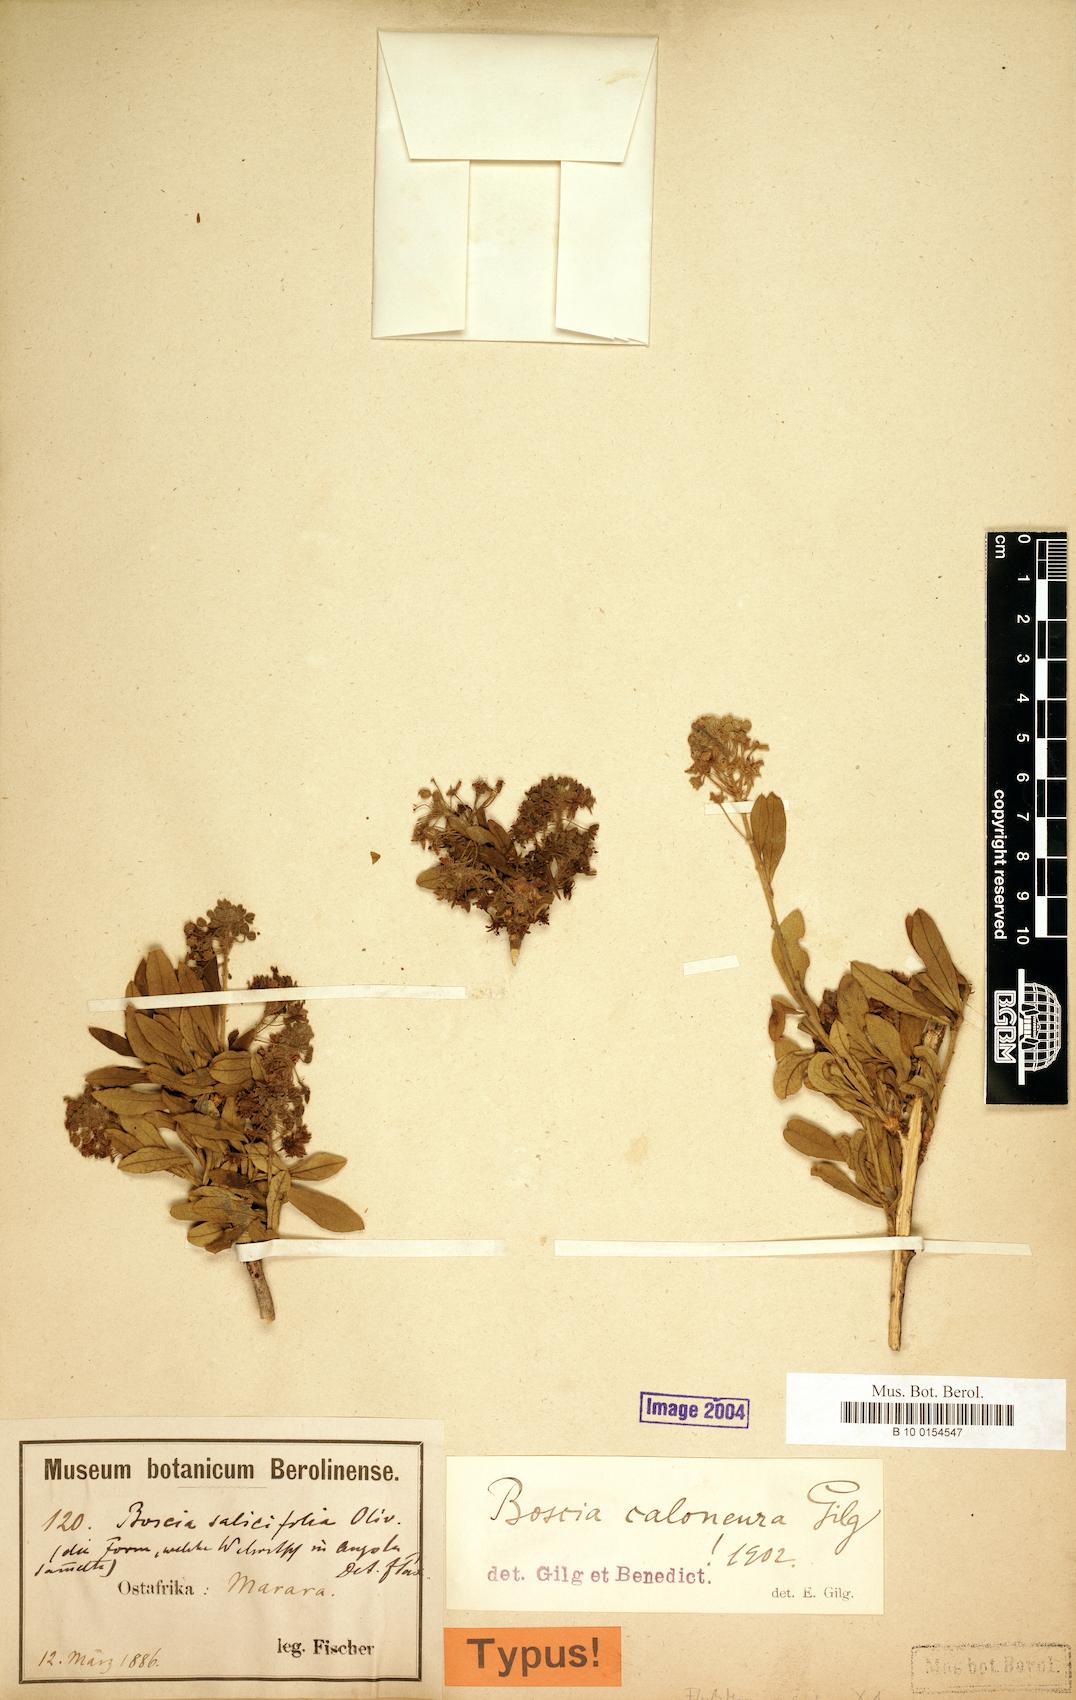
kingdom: Plantae
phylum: Tracheophyta
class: Magnoliopsida
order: Brassicales
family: Capparaceae
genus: Boscia
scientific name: Boscia angustifolia
